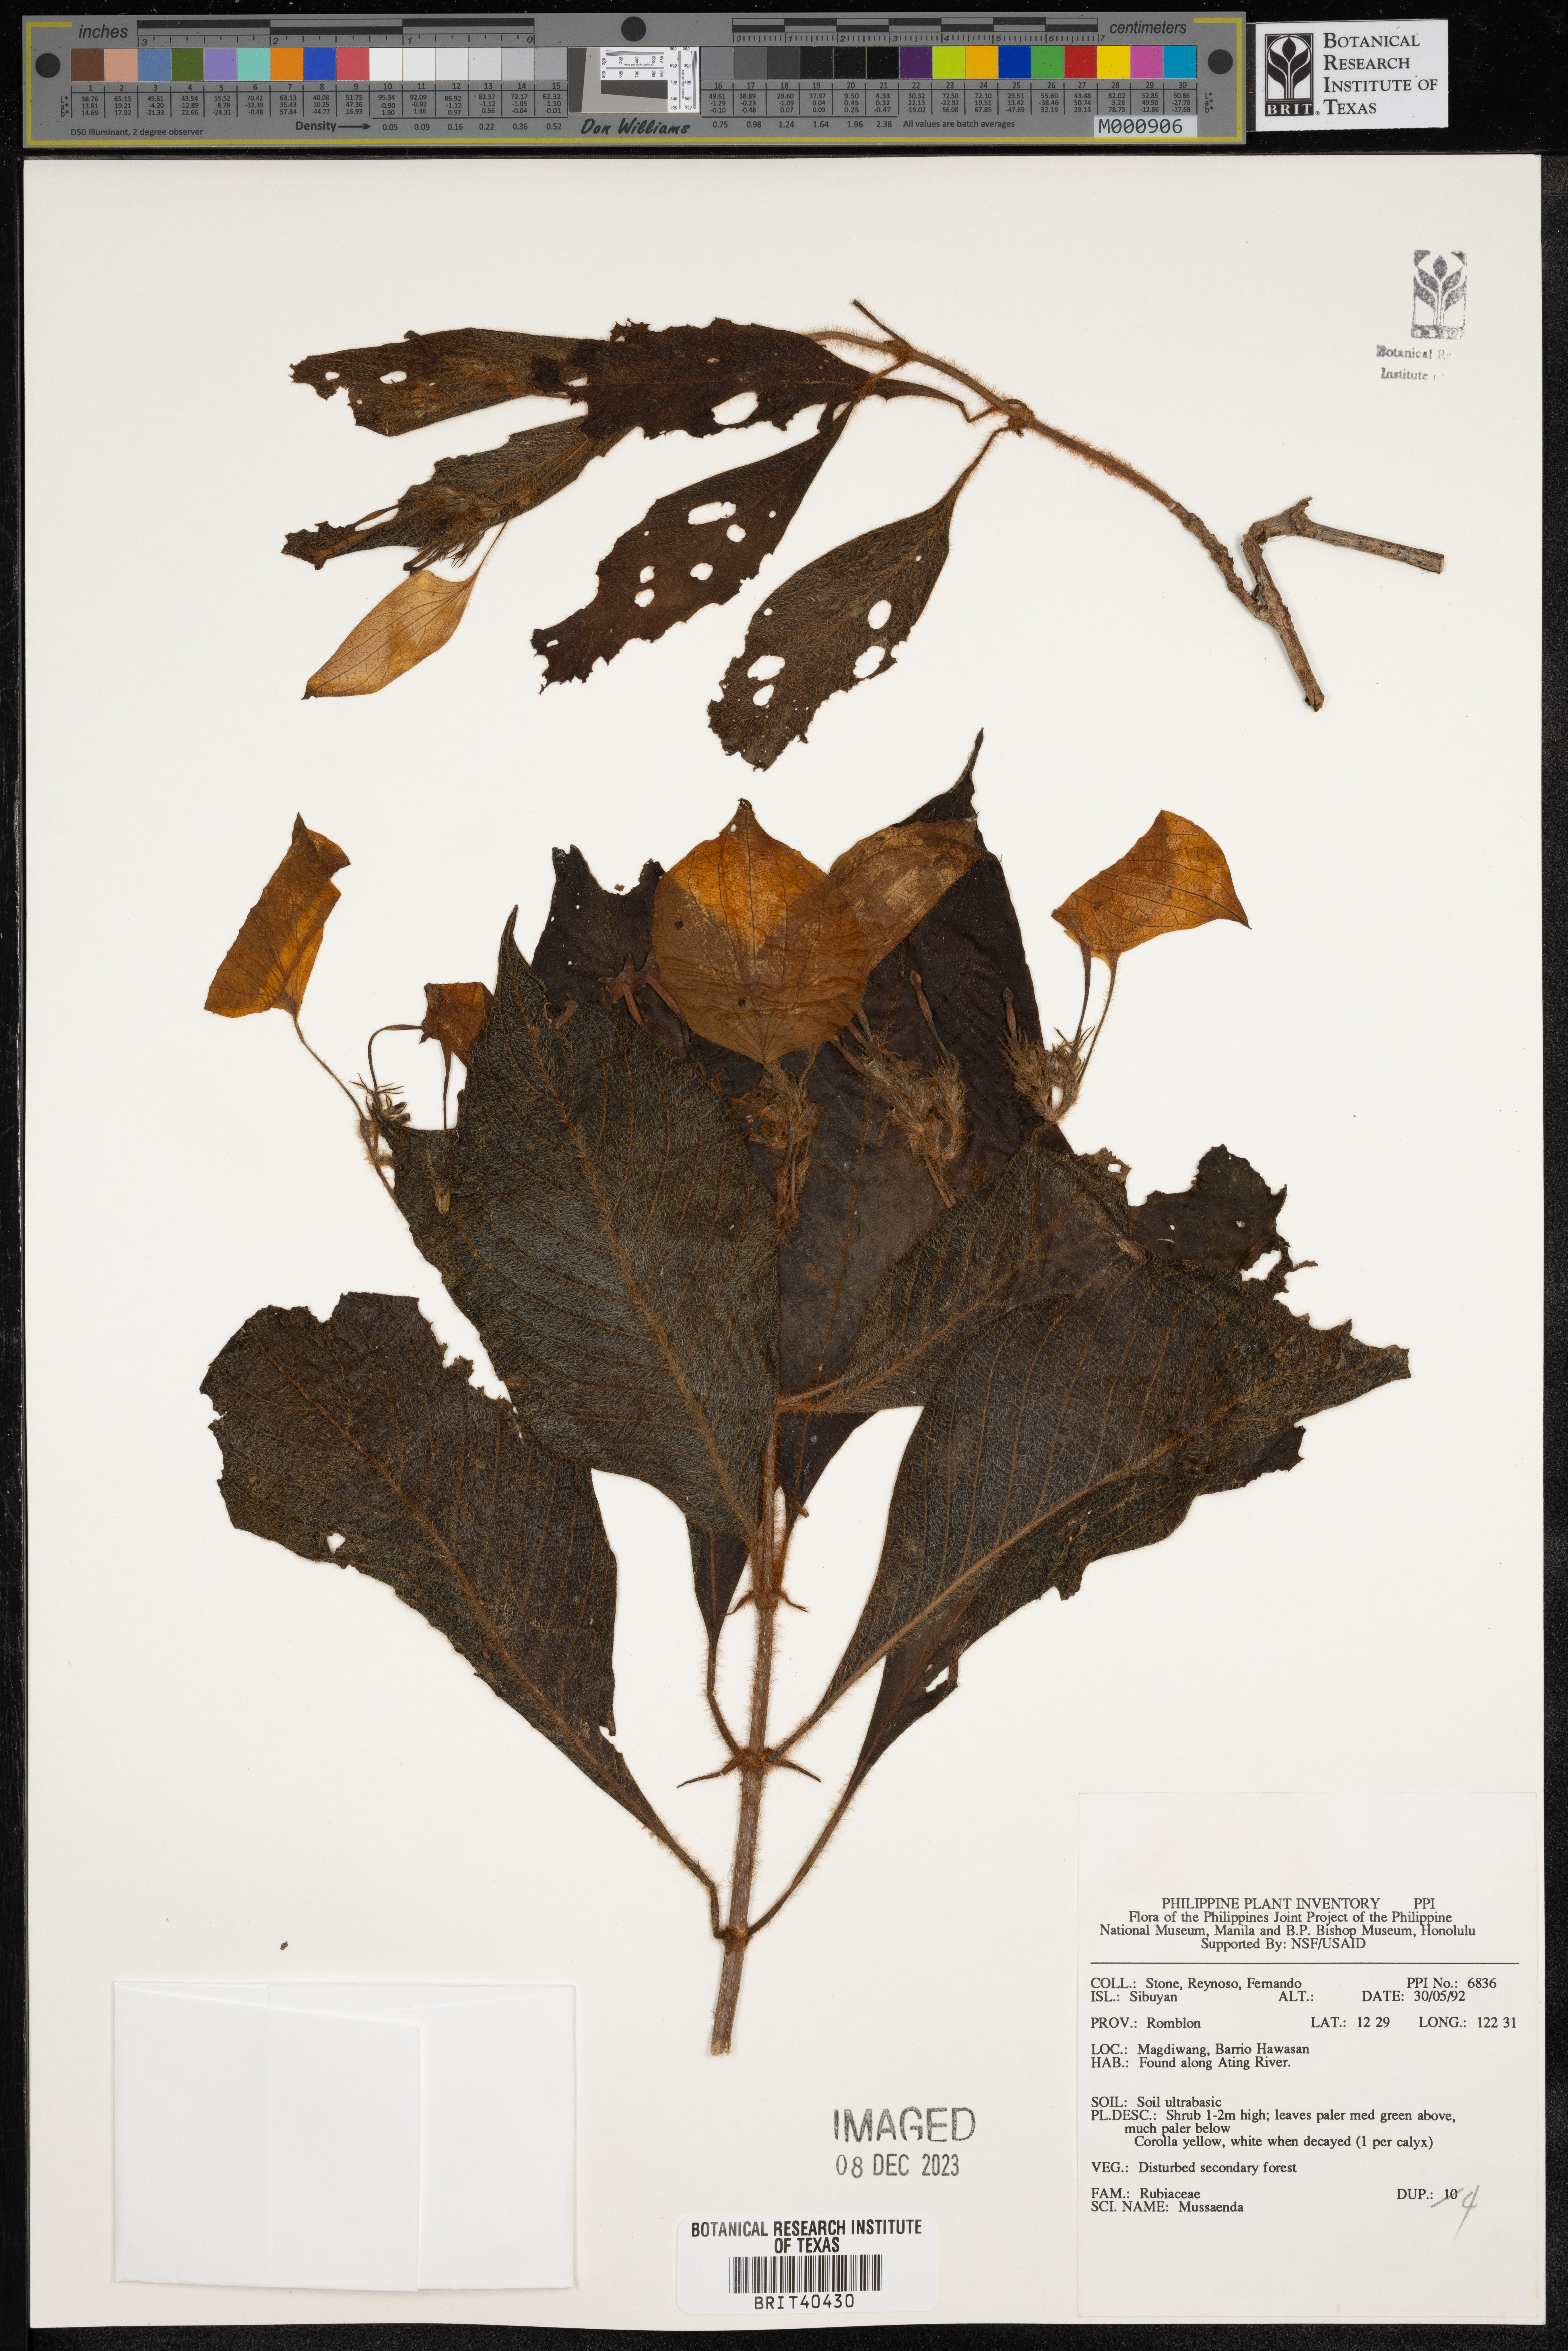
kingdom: Plantae
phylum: Tracheophyta
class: Magnoliopsida
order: Gentianales
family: Rubiaceae
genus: Mussaenda
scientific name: Mussaenda
